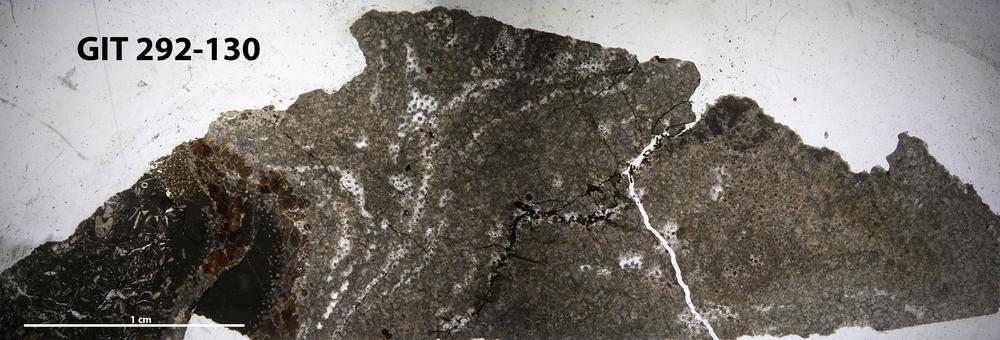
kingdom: Animalia
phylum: Porifera
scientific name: Porifera
